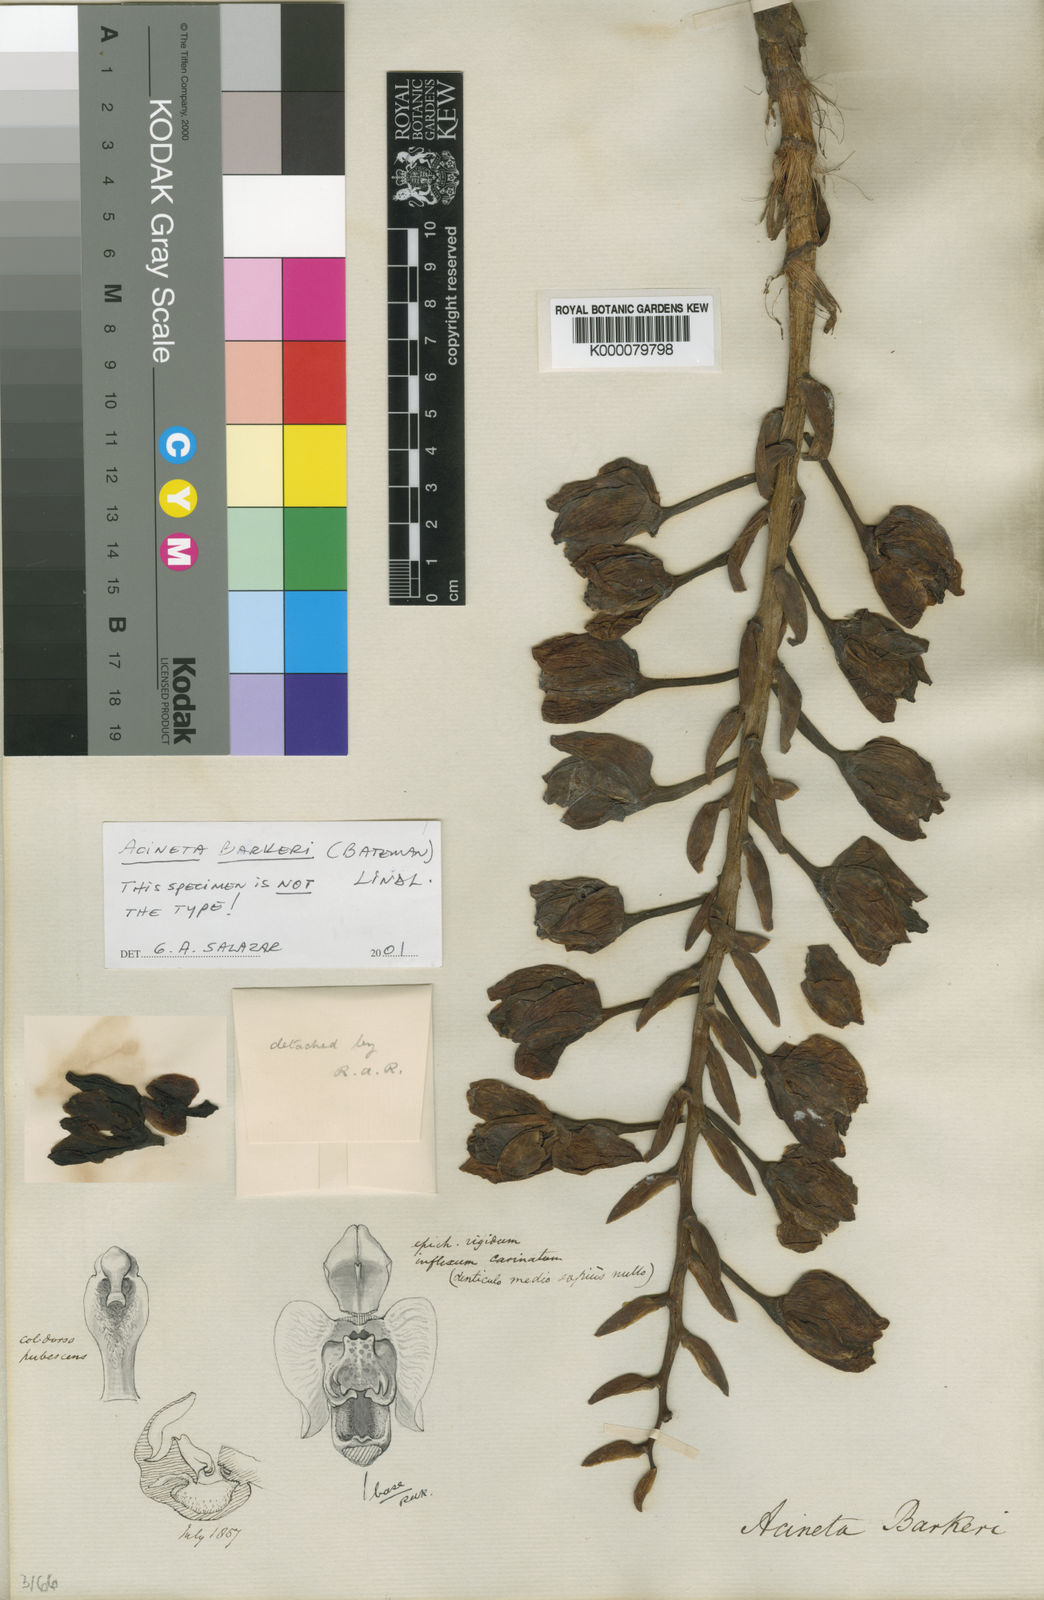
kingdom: Plantae
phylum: Tracheophyta
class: Liliopsida
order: Asparagales
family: Orchidaceae
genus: Acineta
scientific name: Acineta barkeri
